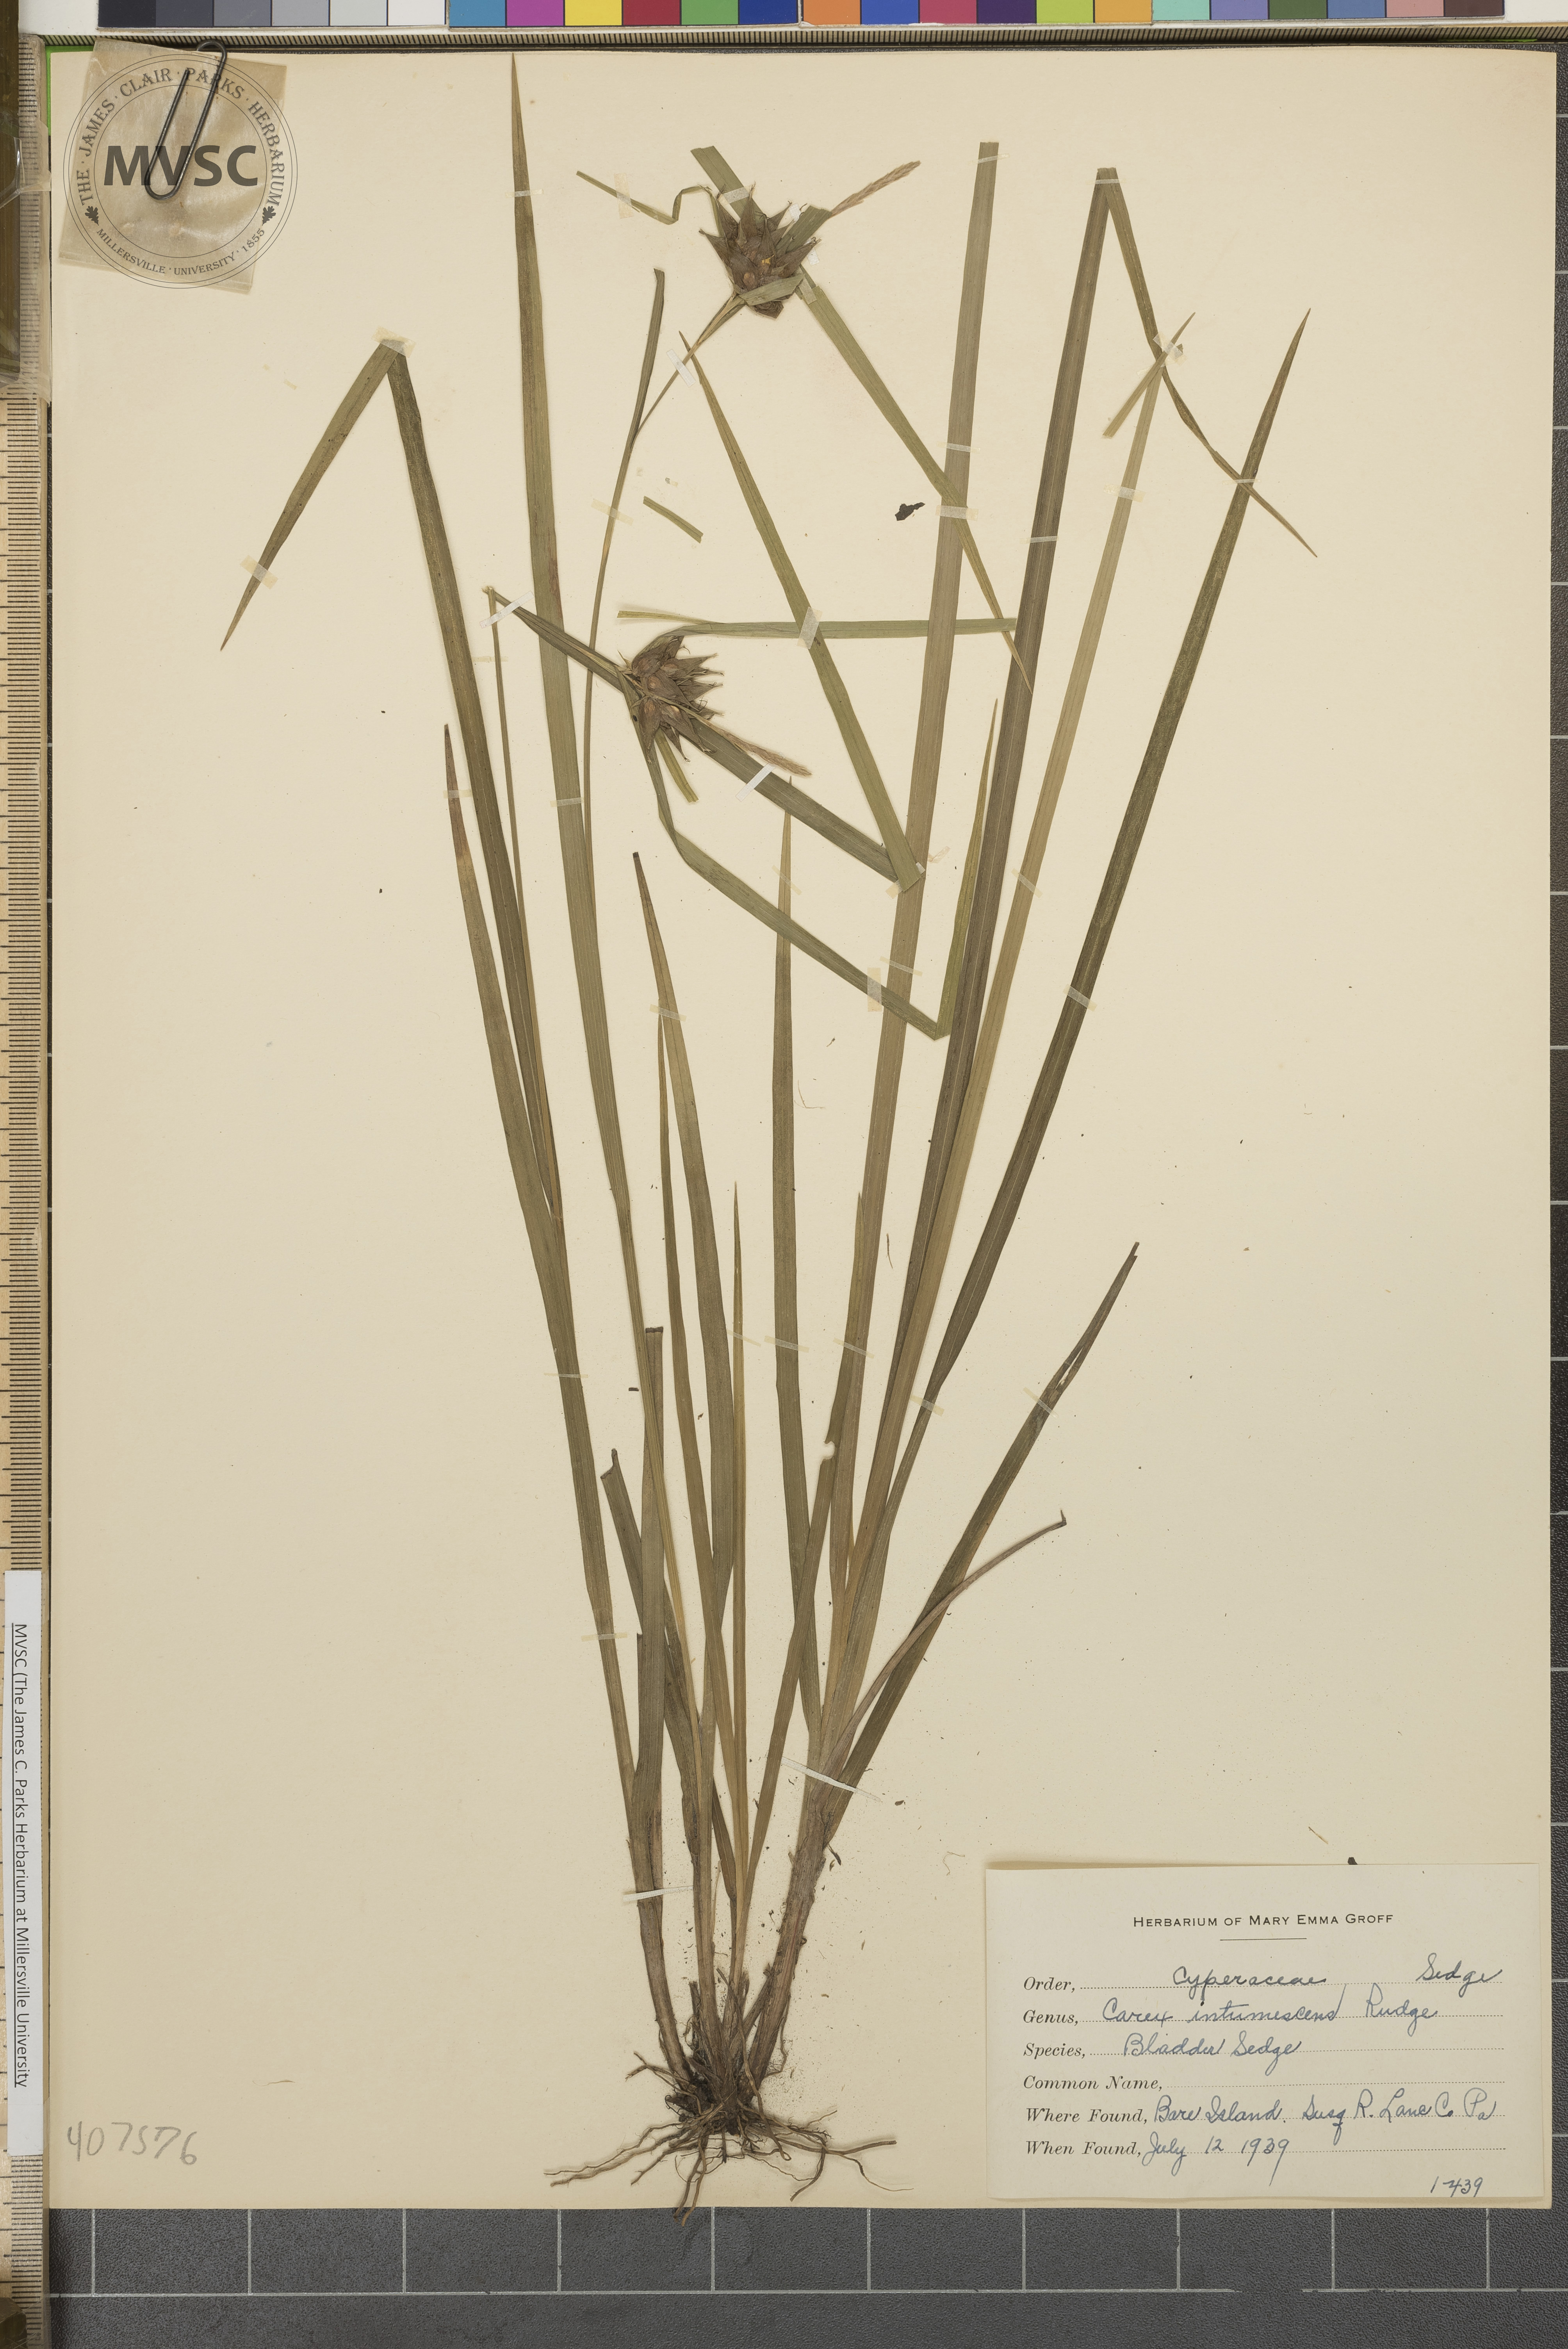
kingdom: Plantae
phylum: Tracheophyta
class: Liliopsida
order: Poales
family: Cyperaceae
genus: Carex
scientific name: Carex intumescens
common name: Bladder-Sedge
